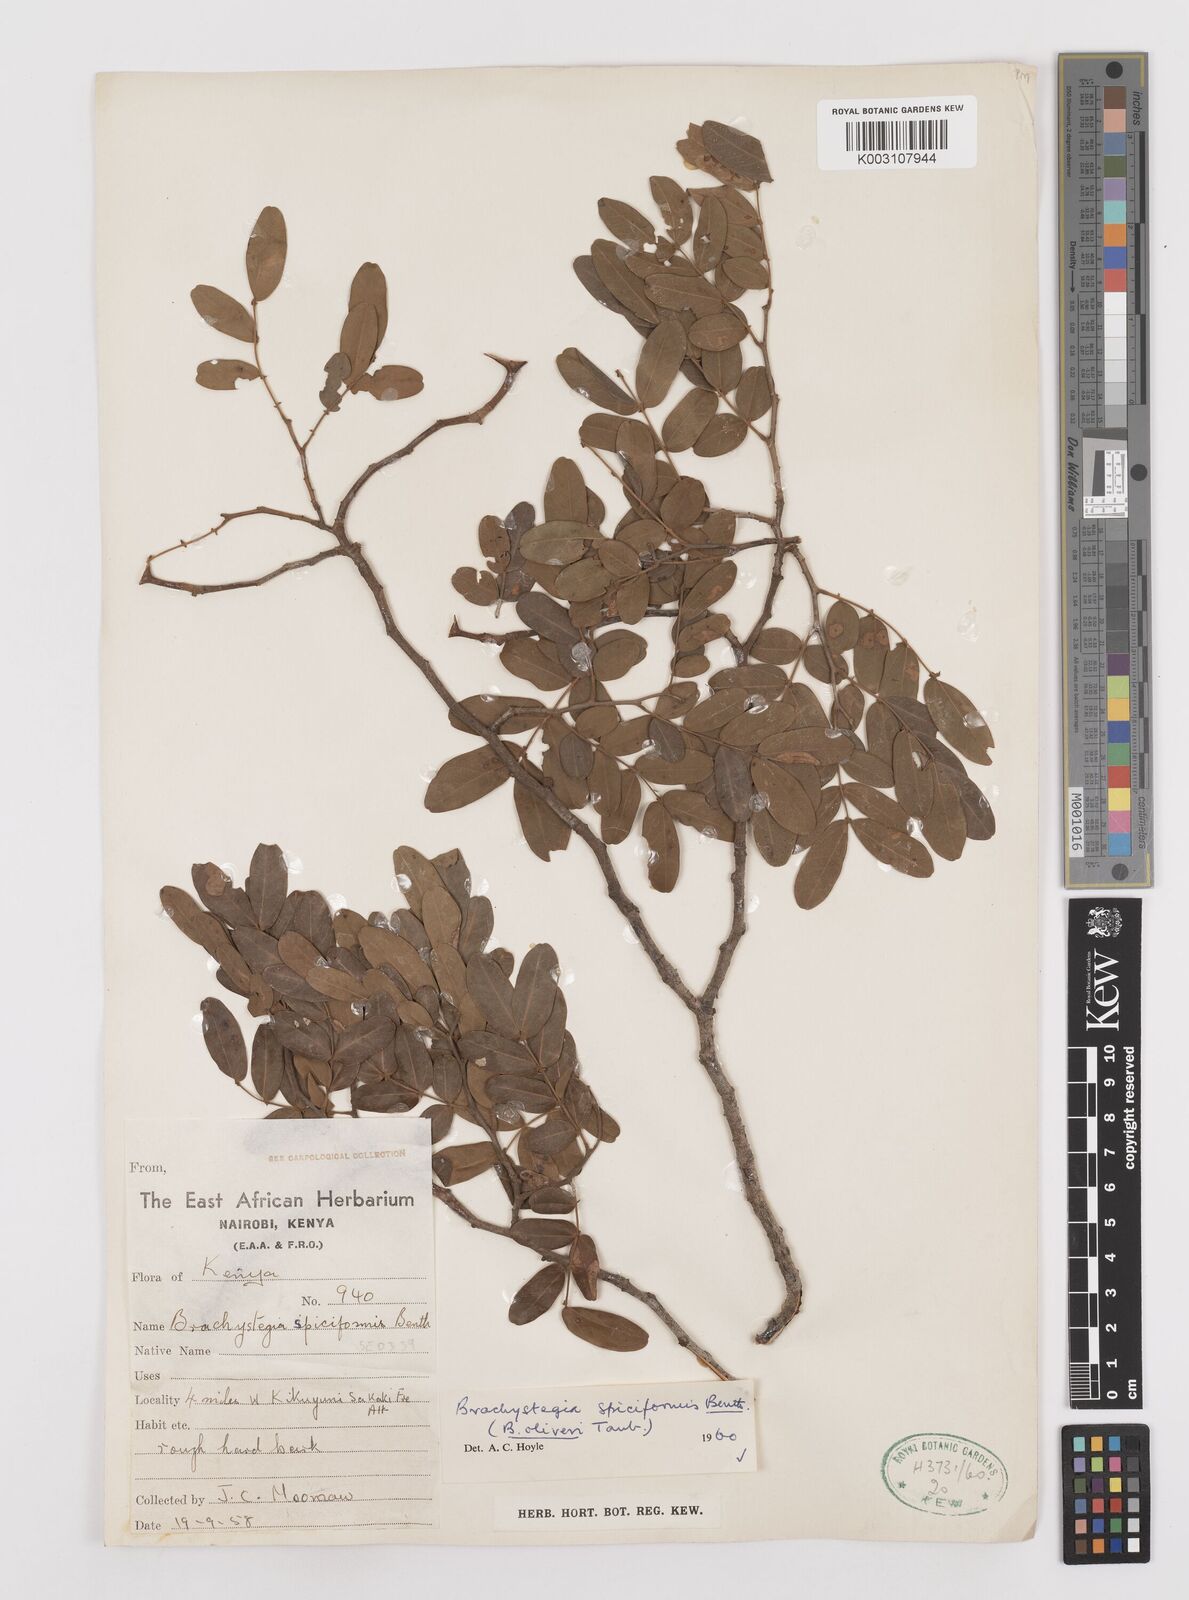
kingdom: Plantae
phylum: Tracheophyta
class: Magnoliopsida
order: Fabales
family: Fabaceae
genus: Brachystegia
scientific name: Brachystegia spiciformis
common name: Zebrawood
